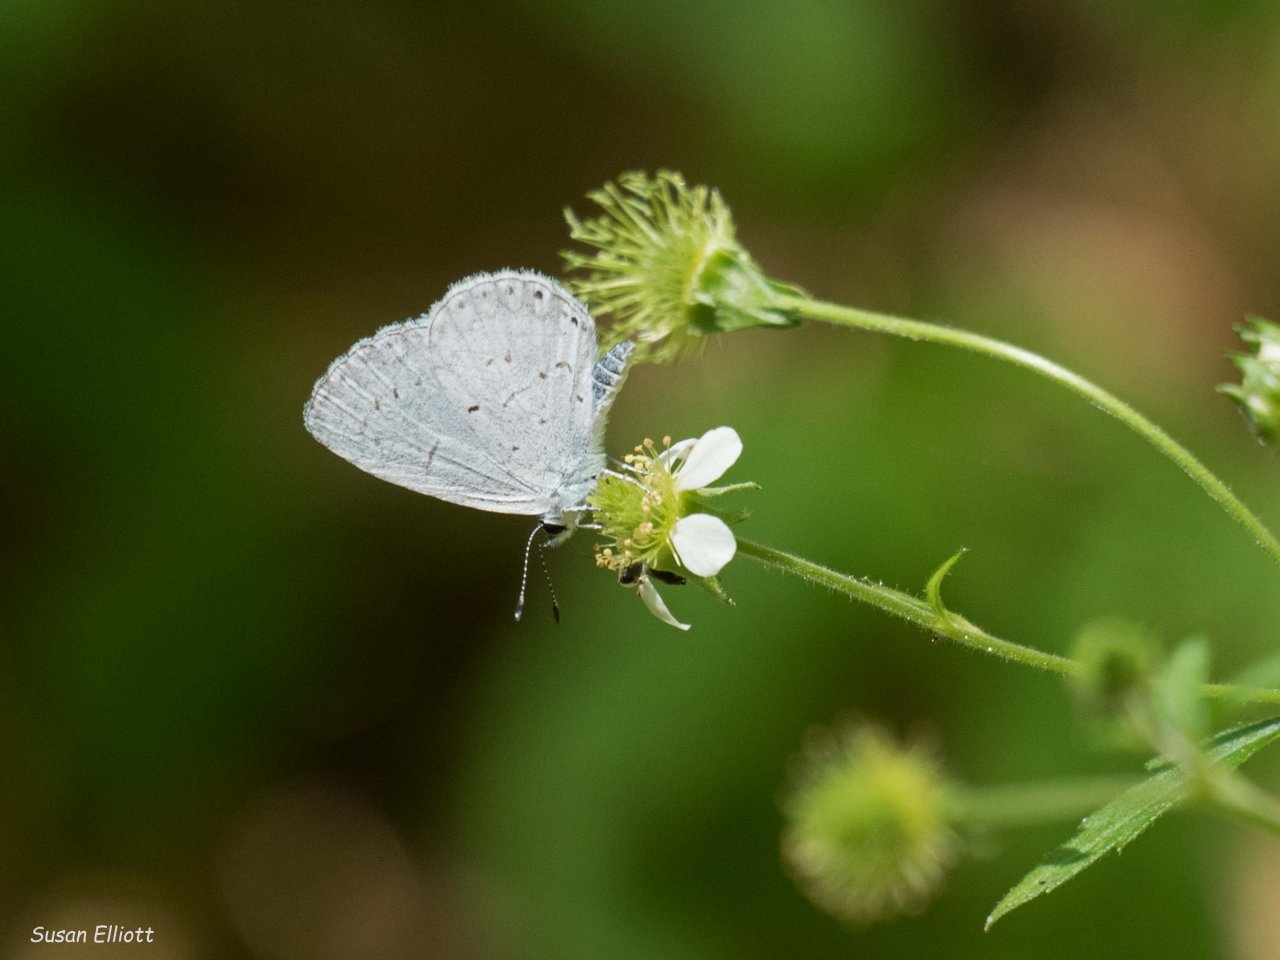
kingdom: Animalia
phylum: Arthropoda
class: Insecta
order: Lepidoptera
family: Lycaenidae
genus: Celastrina
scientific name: Celastrina
